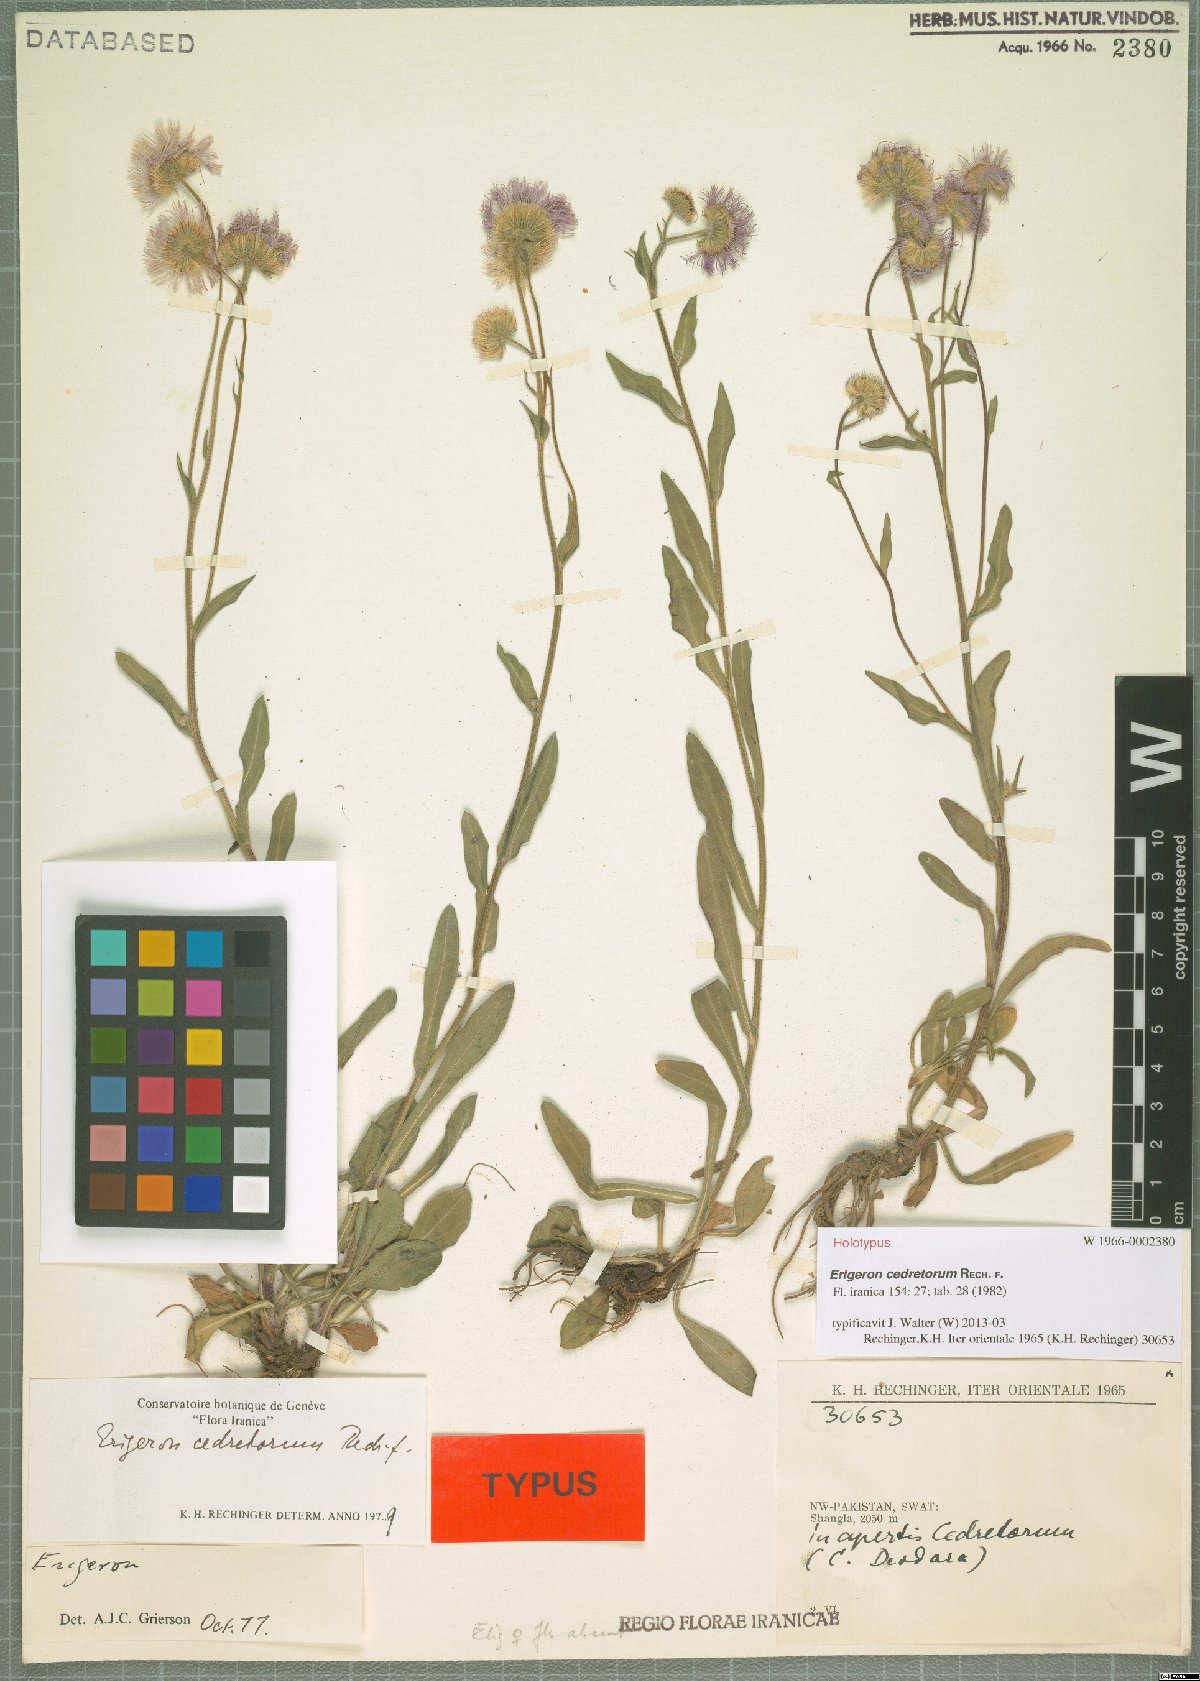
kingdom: Plantae
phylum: Tracheophyta
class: Magnoliopsida
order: Asterales
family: Asteraceae
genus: Erigeron
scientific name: Erigeron cedretorum
